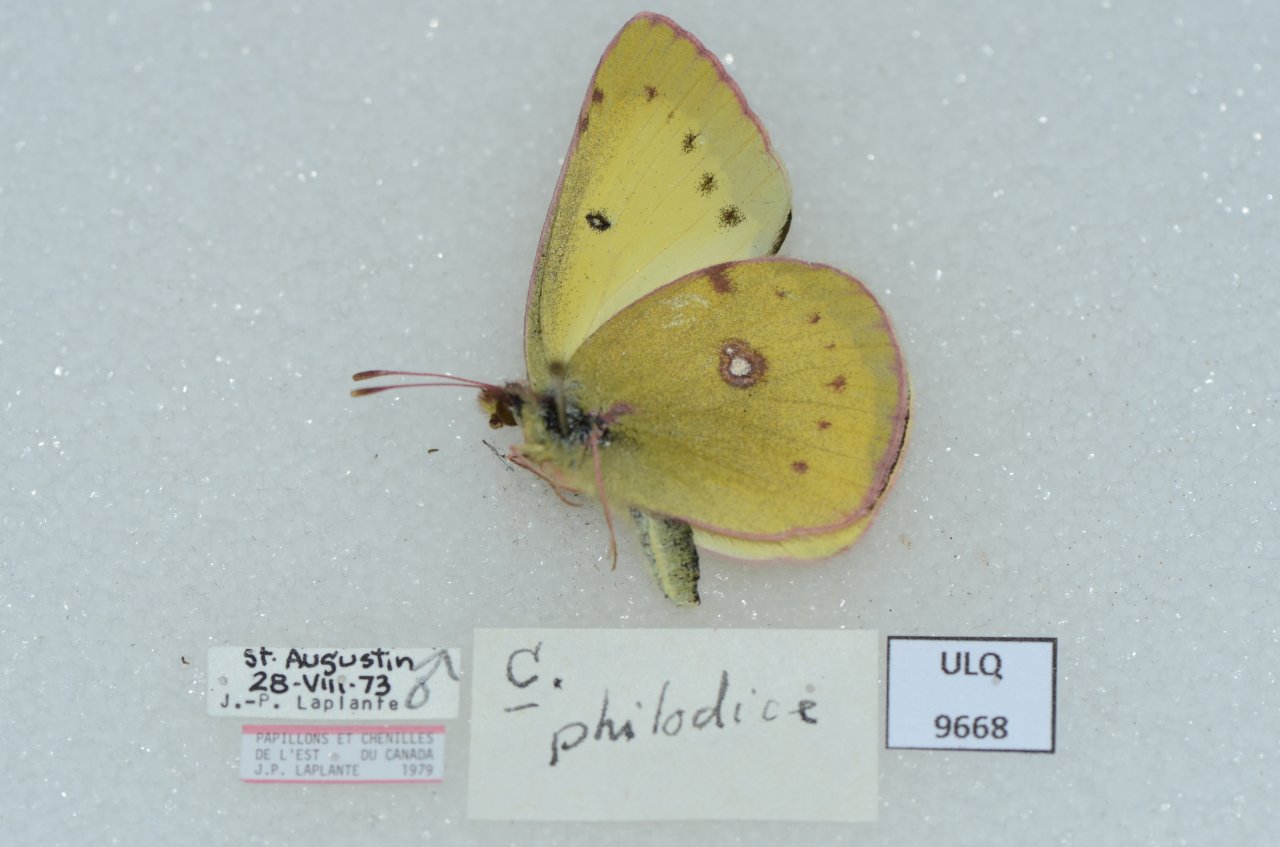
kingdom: Animalia
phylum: Arthropoda
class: Insecta
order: Lepidoptera
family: Pieridae
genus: Colias
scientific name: Colias philodice
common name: Clouded Sulphur
